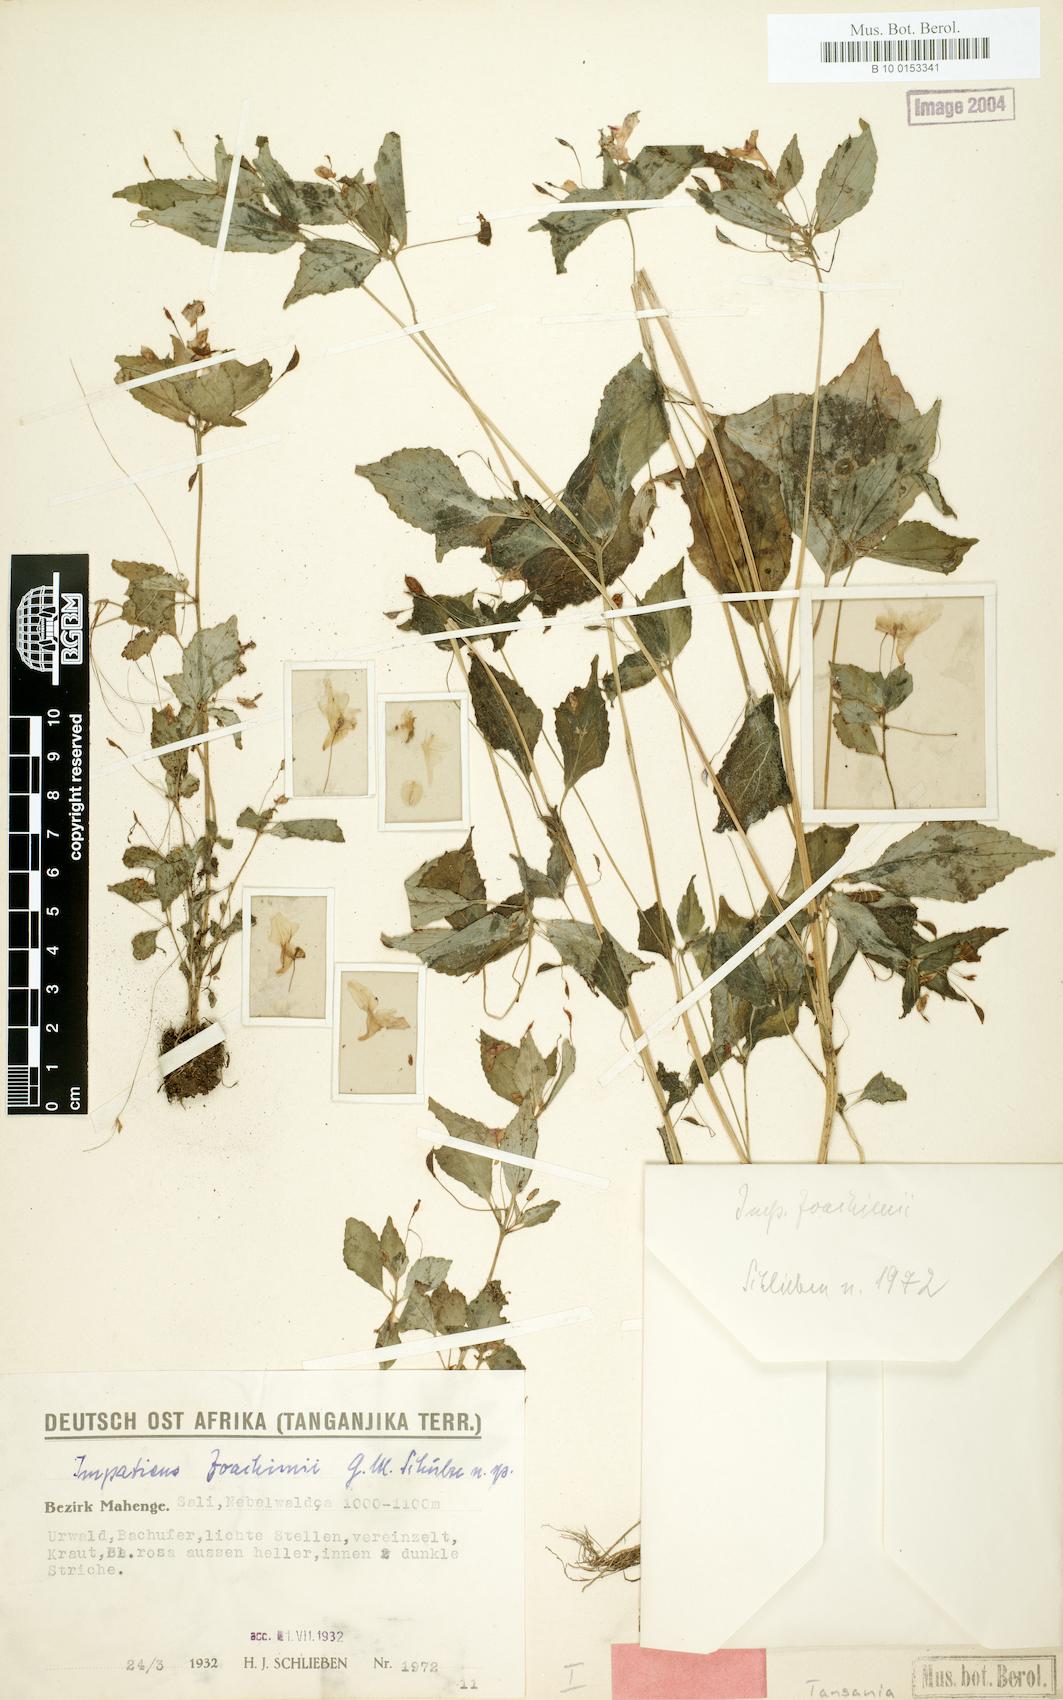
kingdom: Plantae
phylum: Tracheophyta
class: Magnoliopsida
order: Ericales
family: Balsaminaceae
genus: Impatiens
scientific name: Impatiens joachimii
